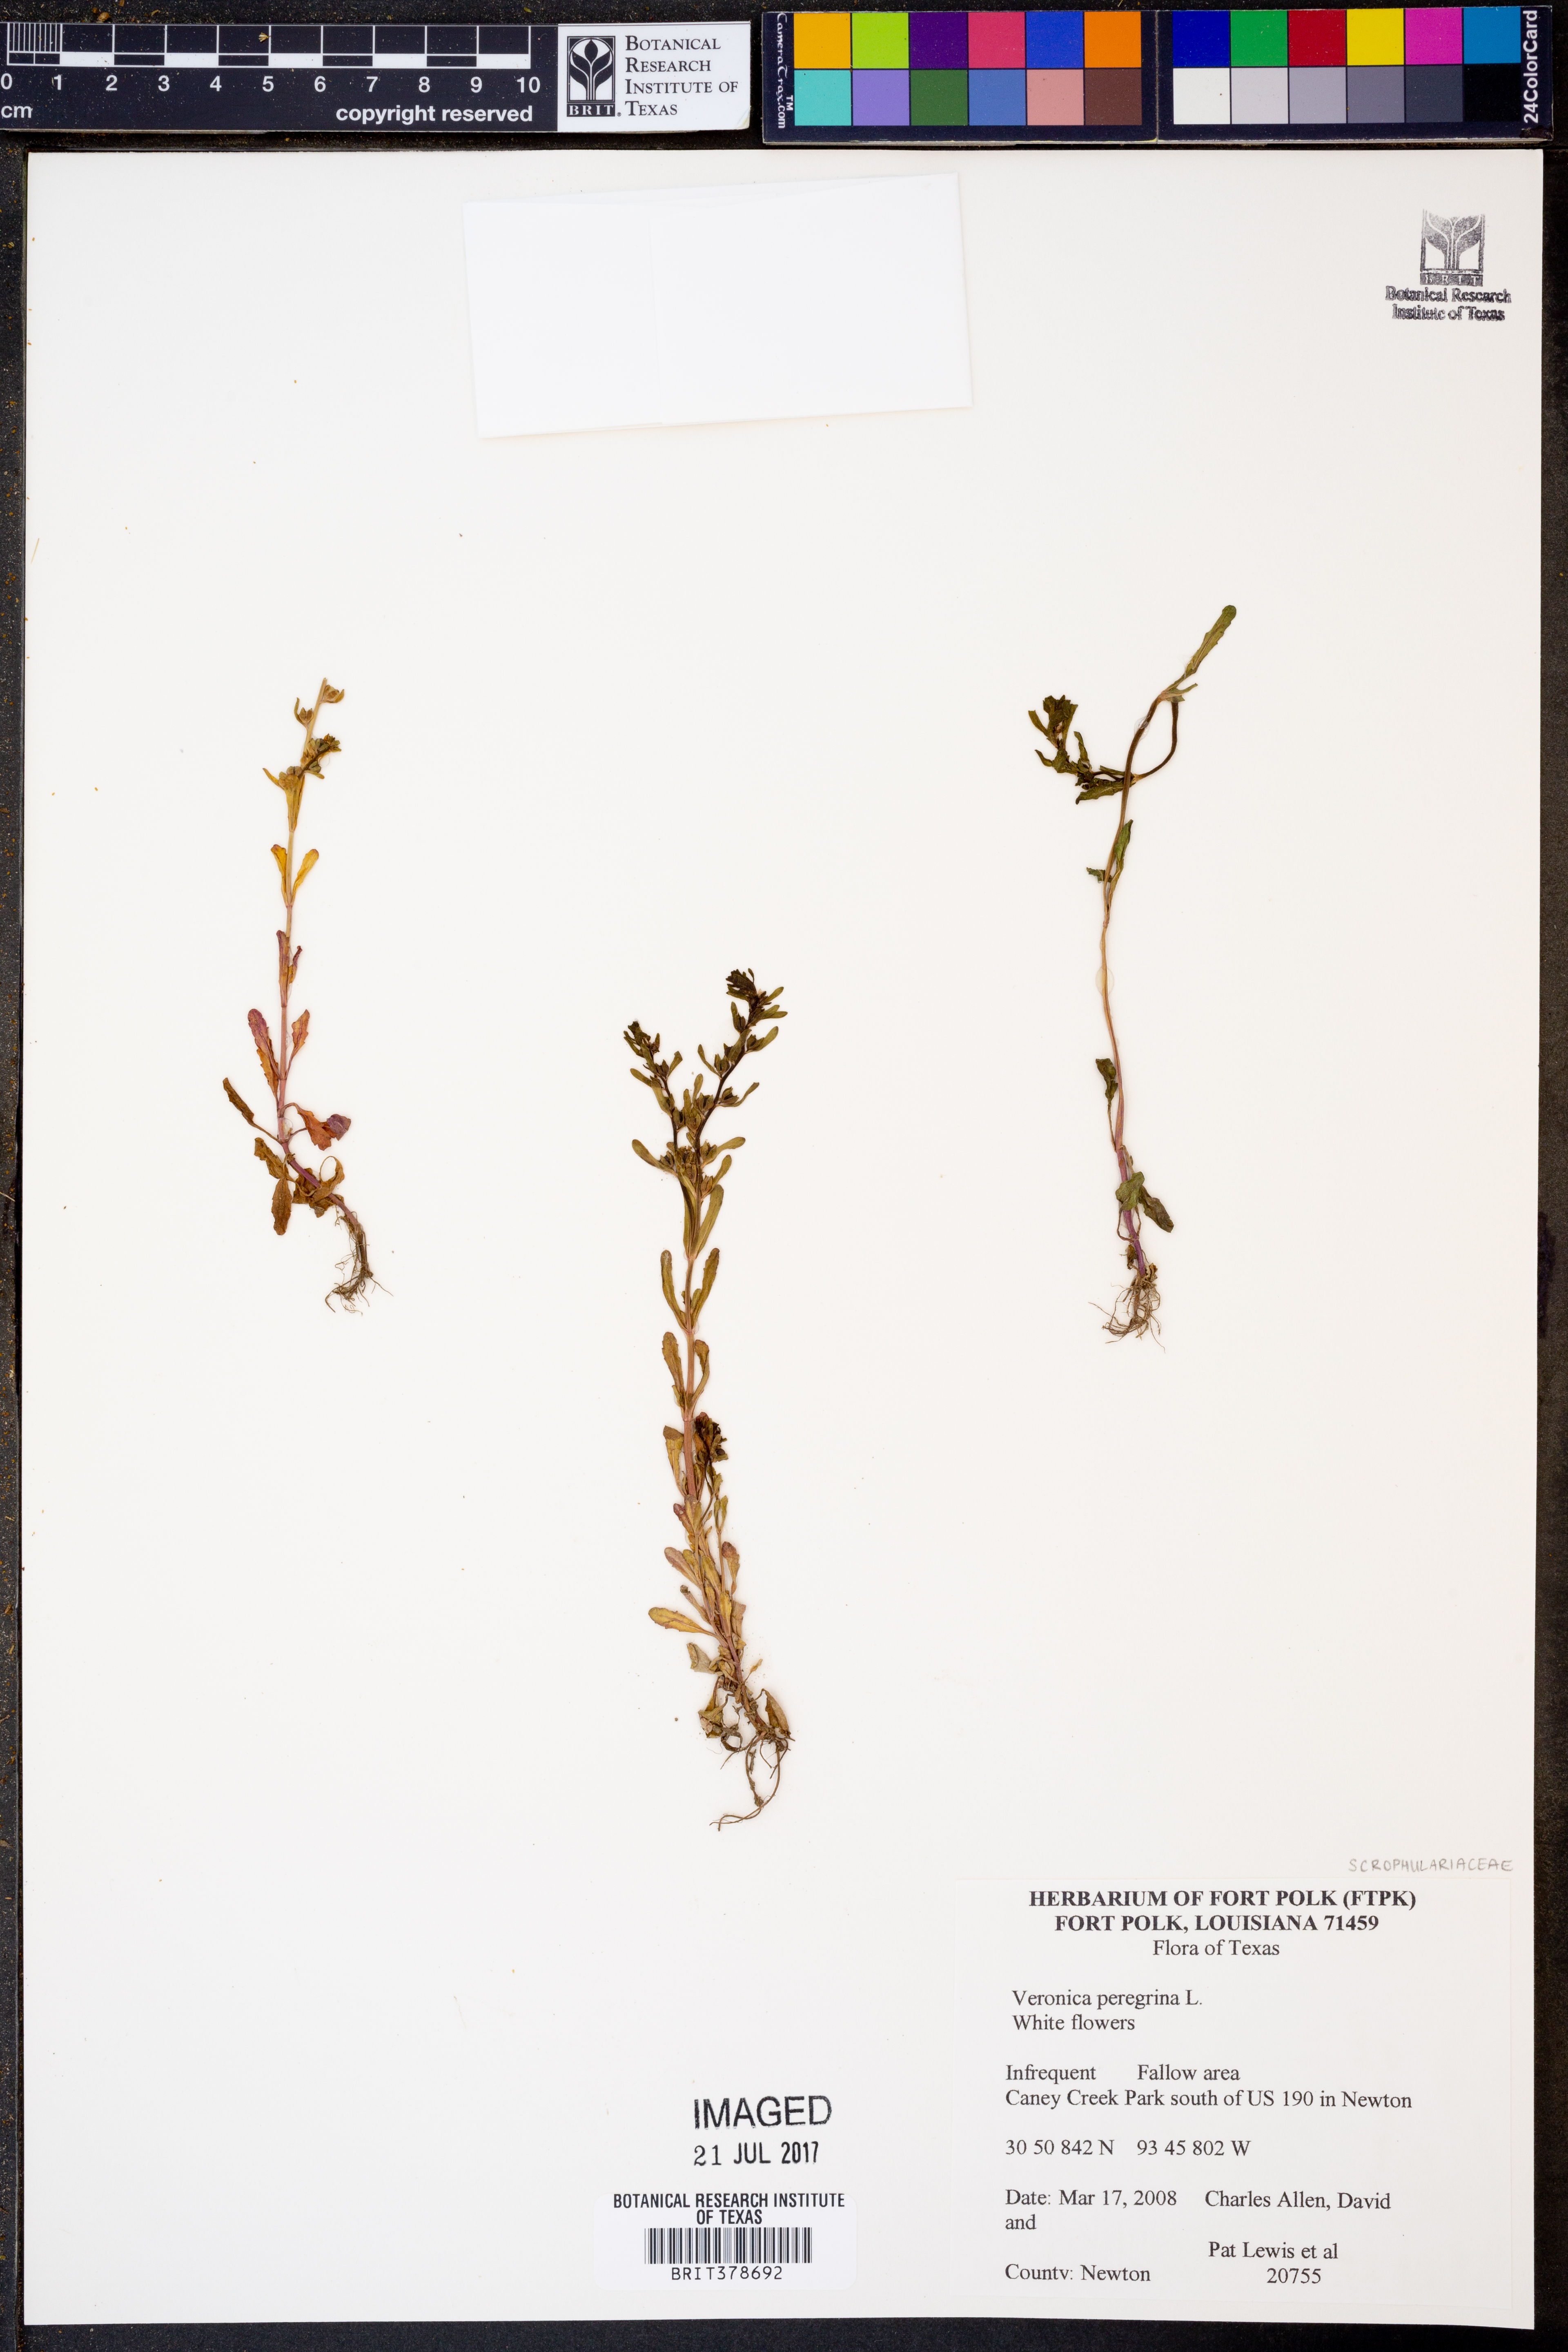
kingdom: Plantae
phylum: Tracheophyta
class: Magnoliopsida
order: Lamiales
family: Plantaginaceae
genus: Veronica
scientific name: Veronica peregrina
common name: Neckweed
